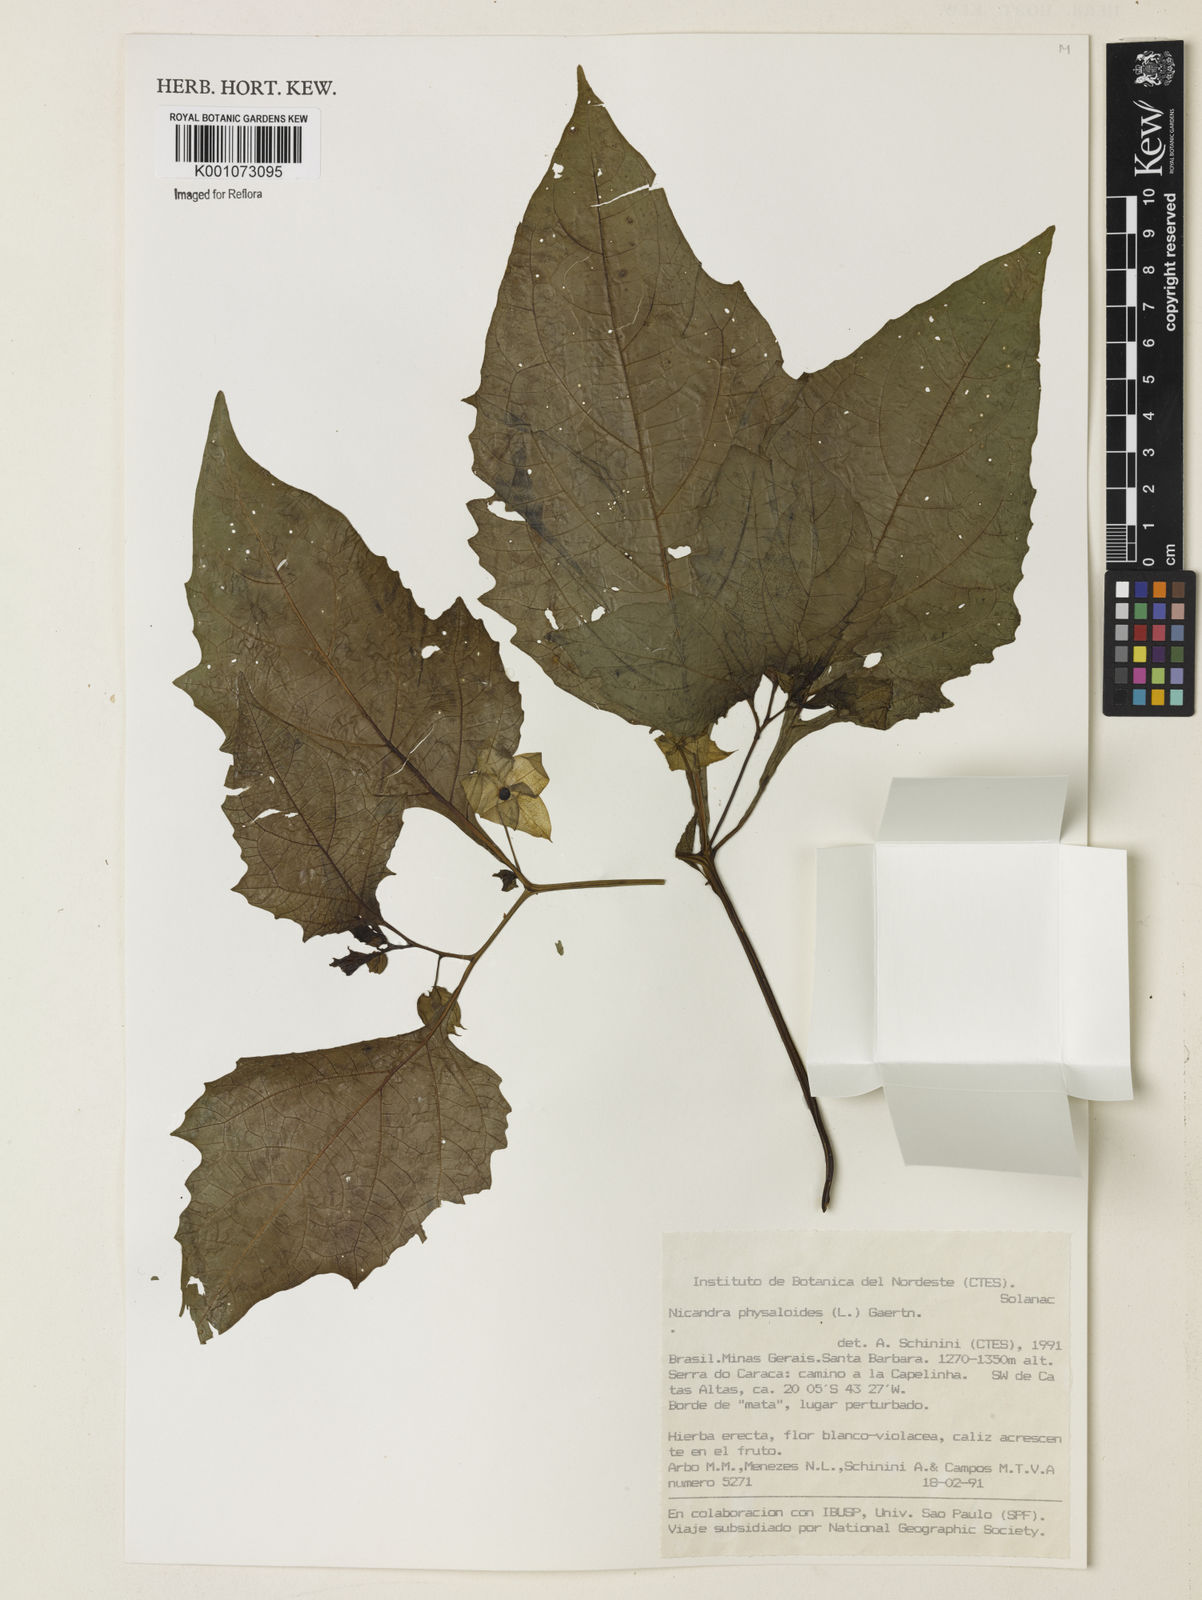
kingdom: Plantae
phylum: Tracheophyta
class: Magnoliopsida
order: Solanales
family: Solanaceae
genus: Nicandra
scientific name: Nicandra
